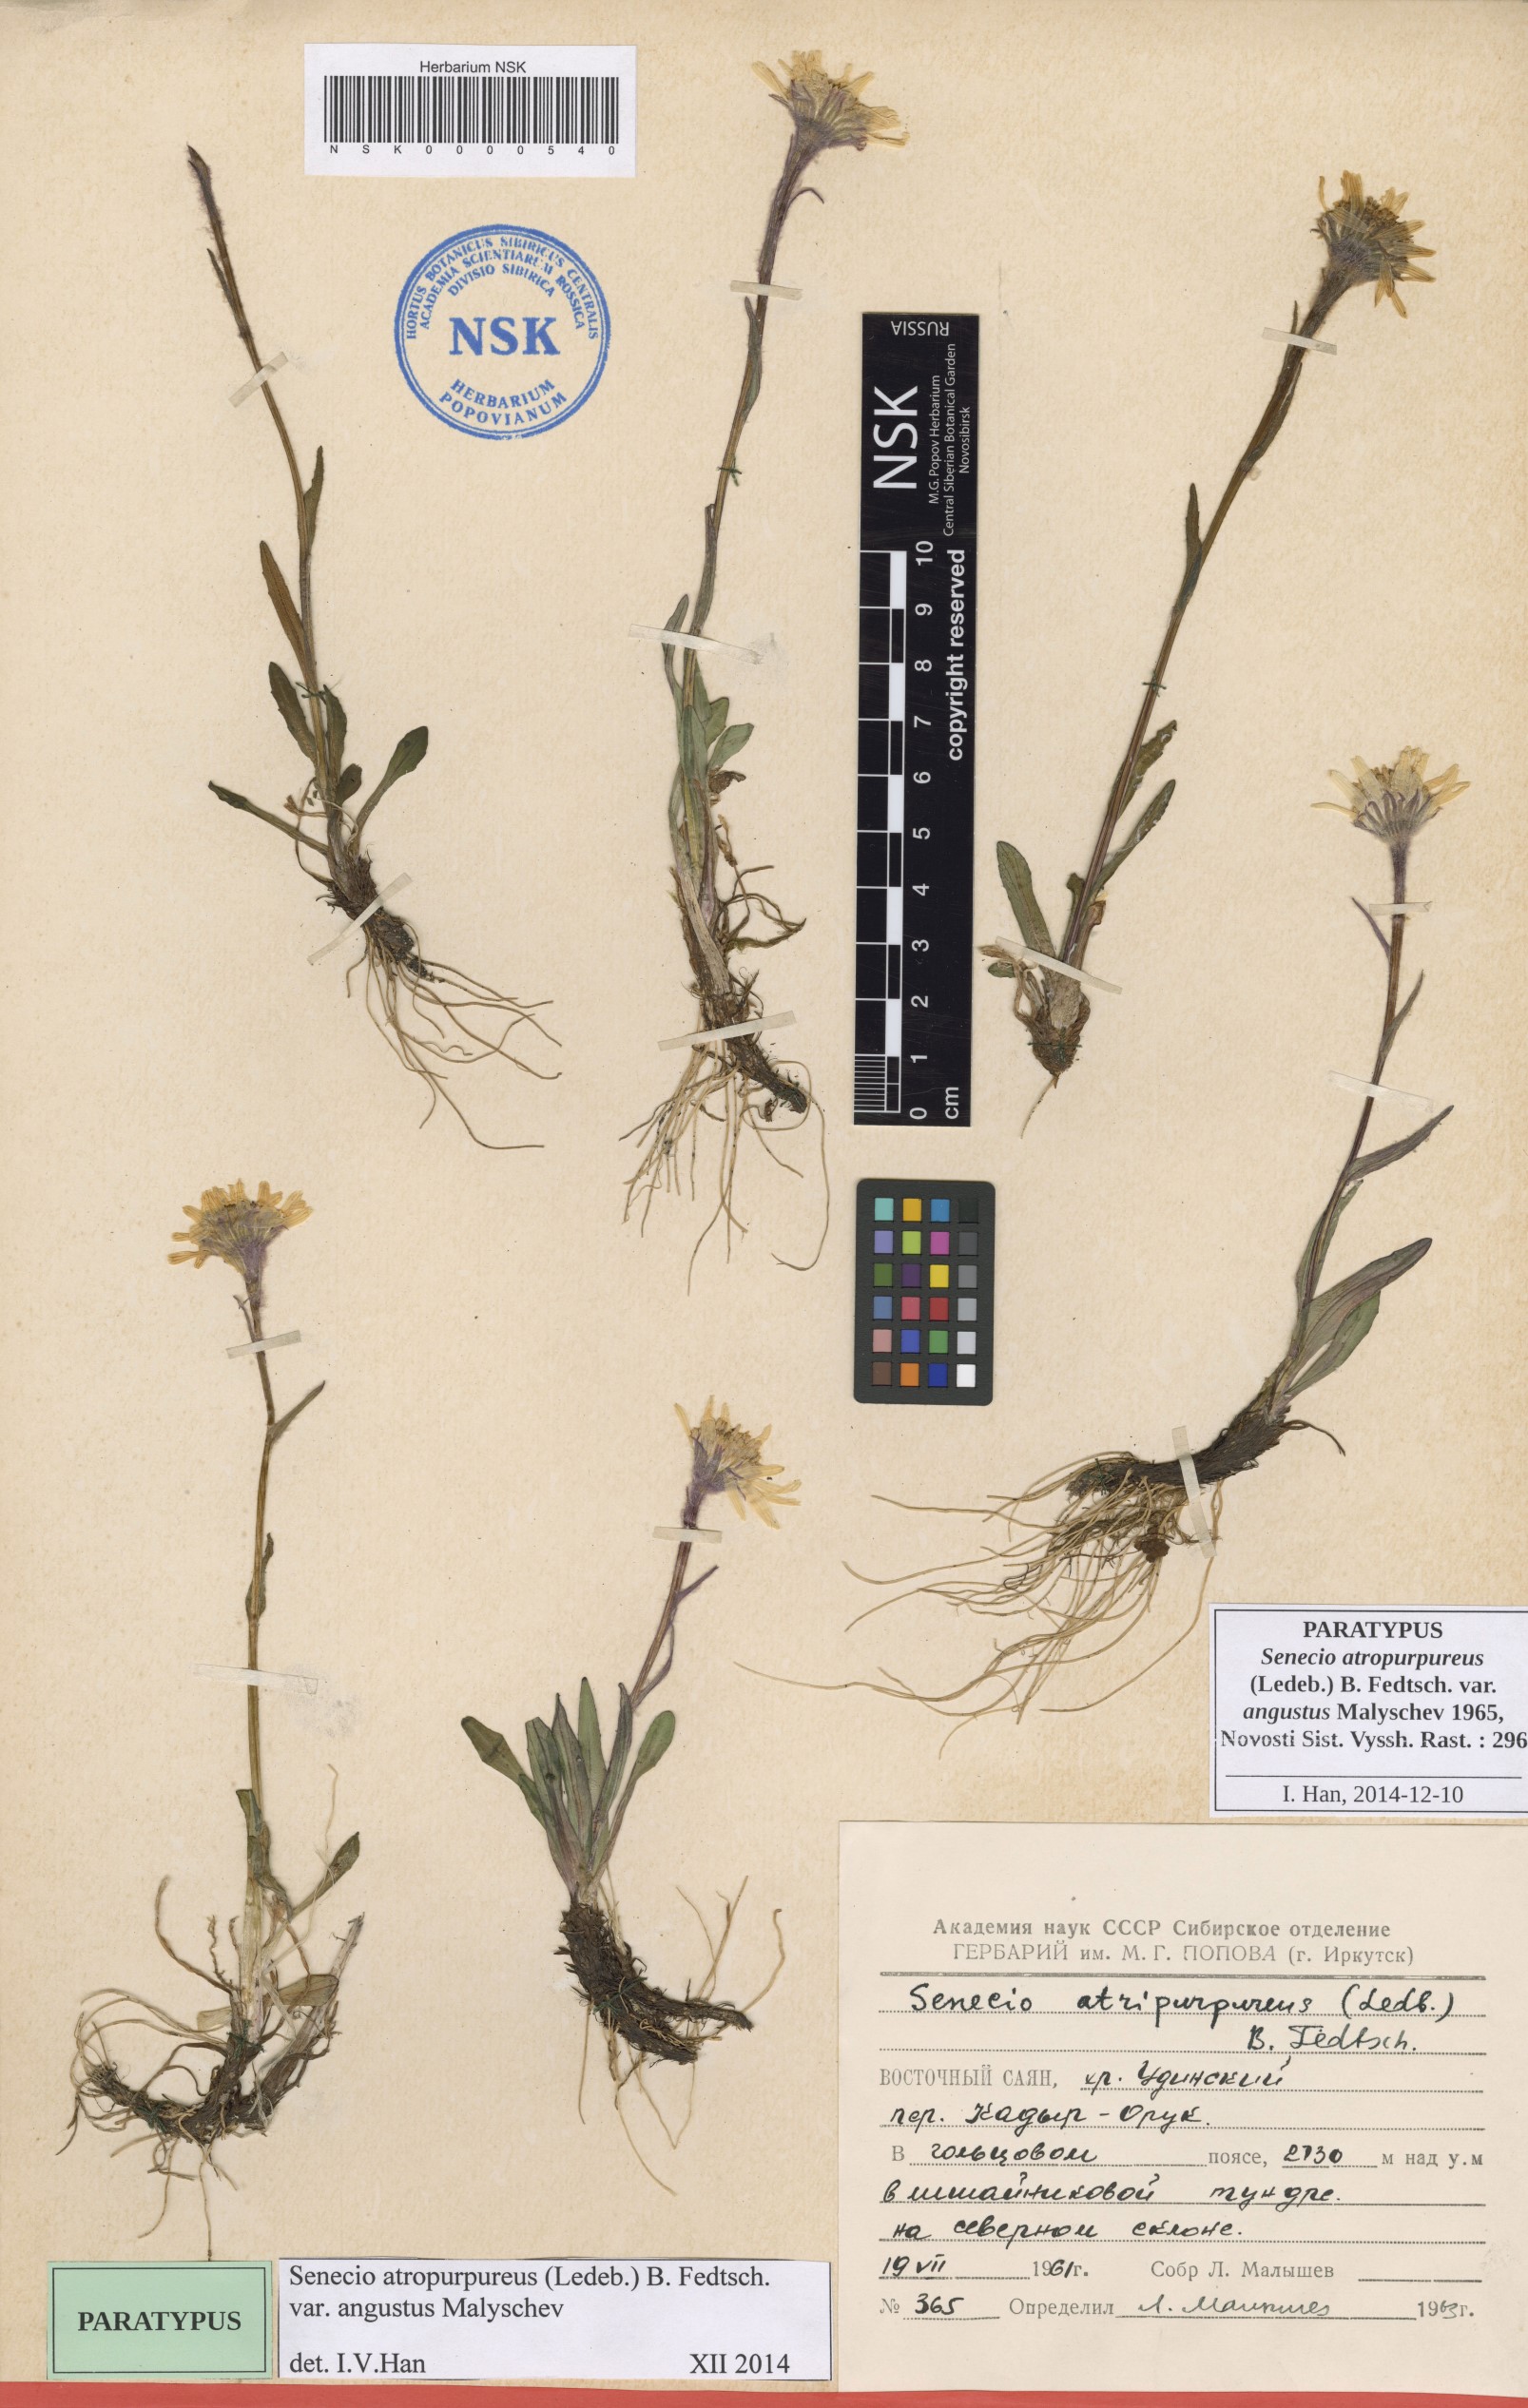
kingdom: Plantae
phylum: Tracheophyta
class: Magnoliopsida
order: Asterales
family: Asteraceae
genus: Tephroseris
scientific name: Tephroseris integrifolia
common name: Field fleawort
